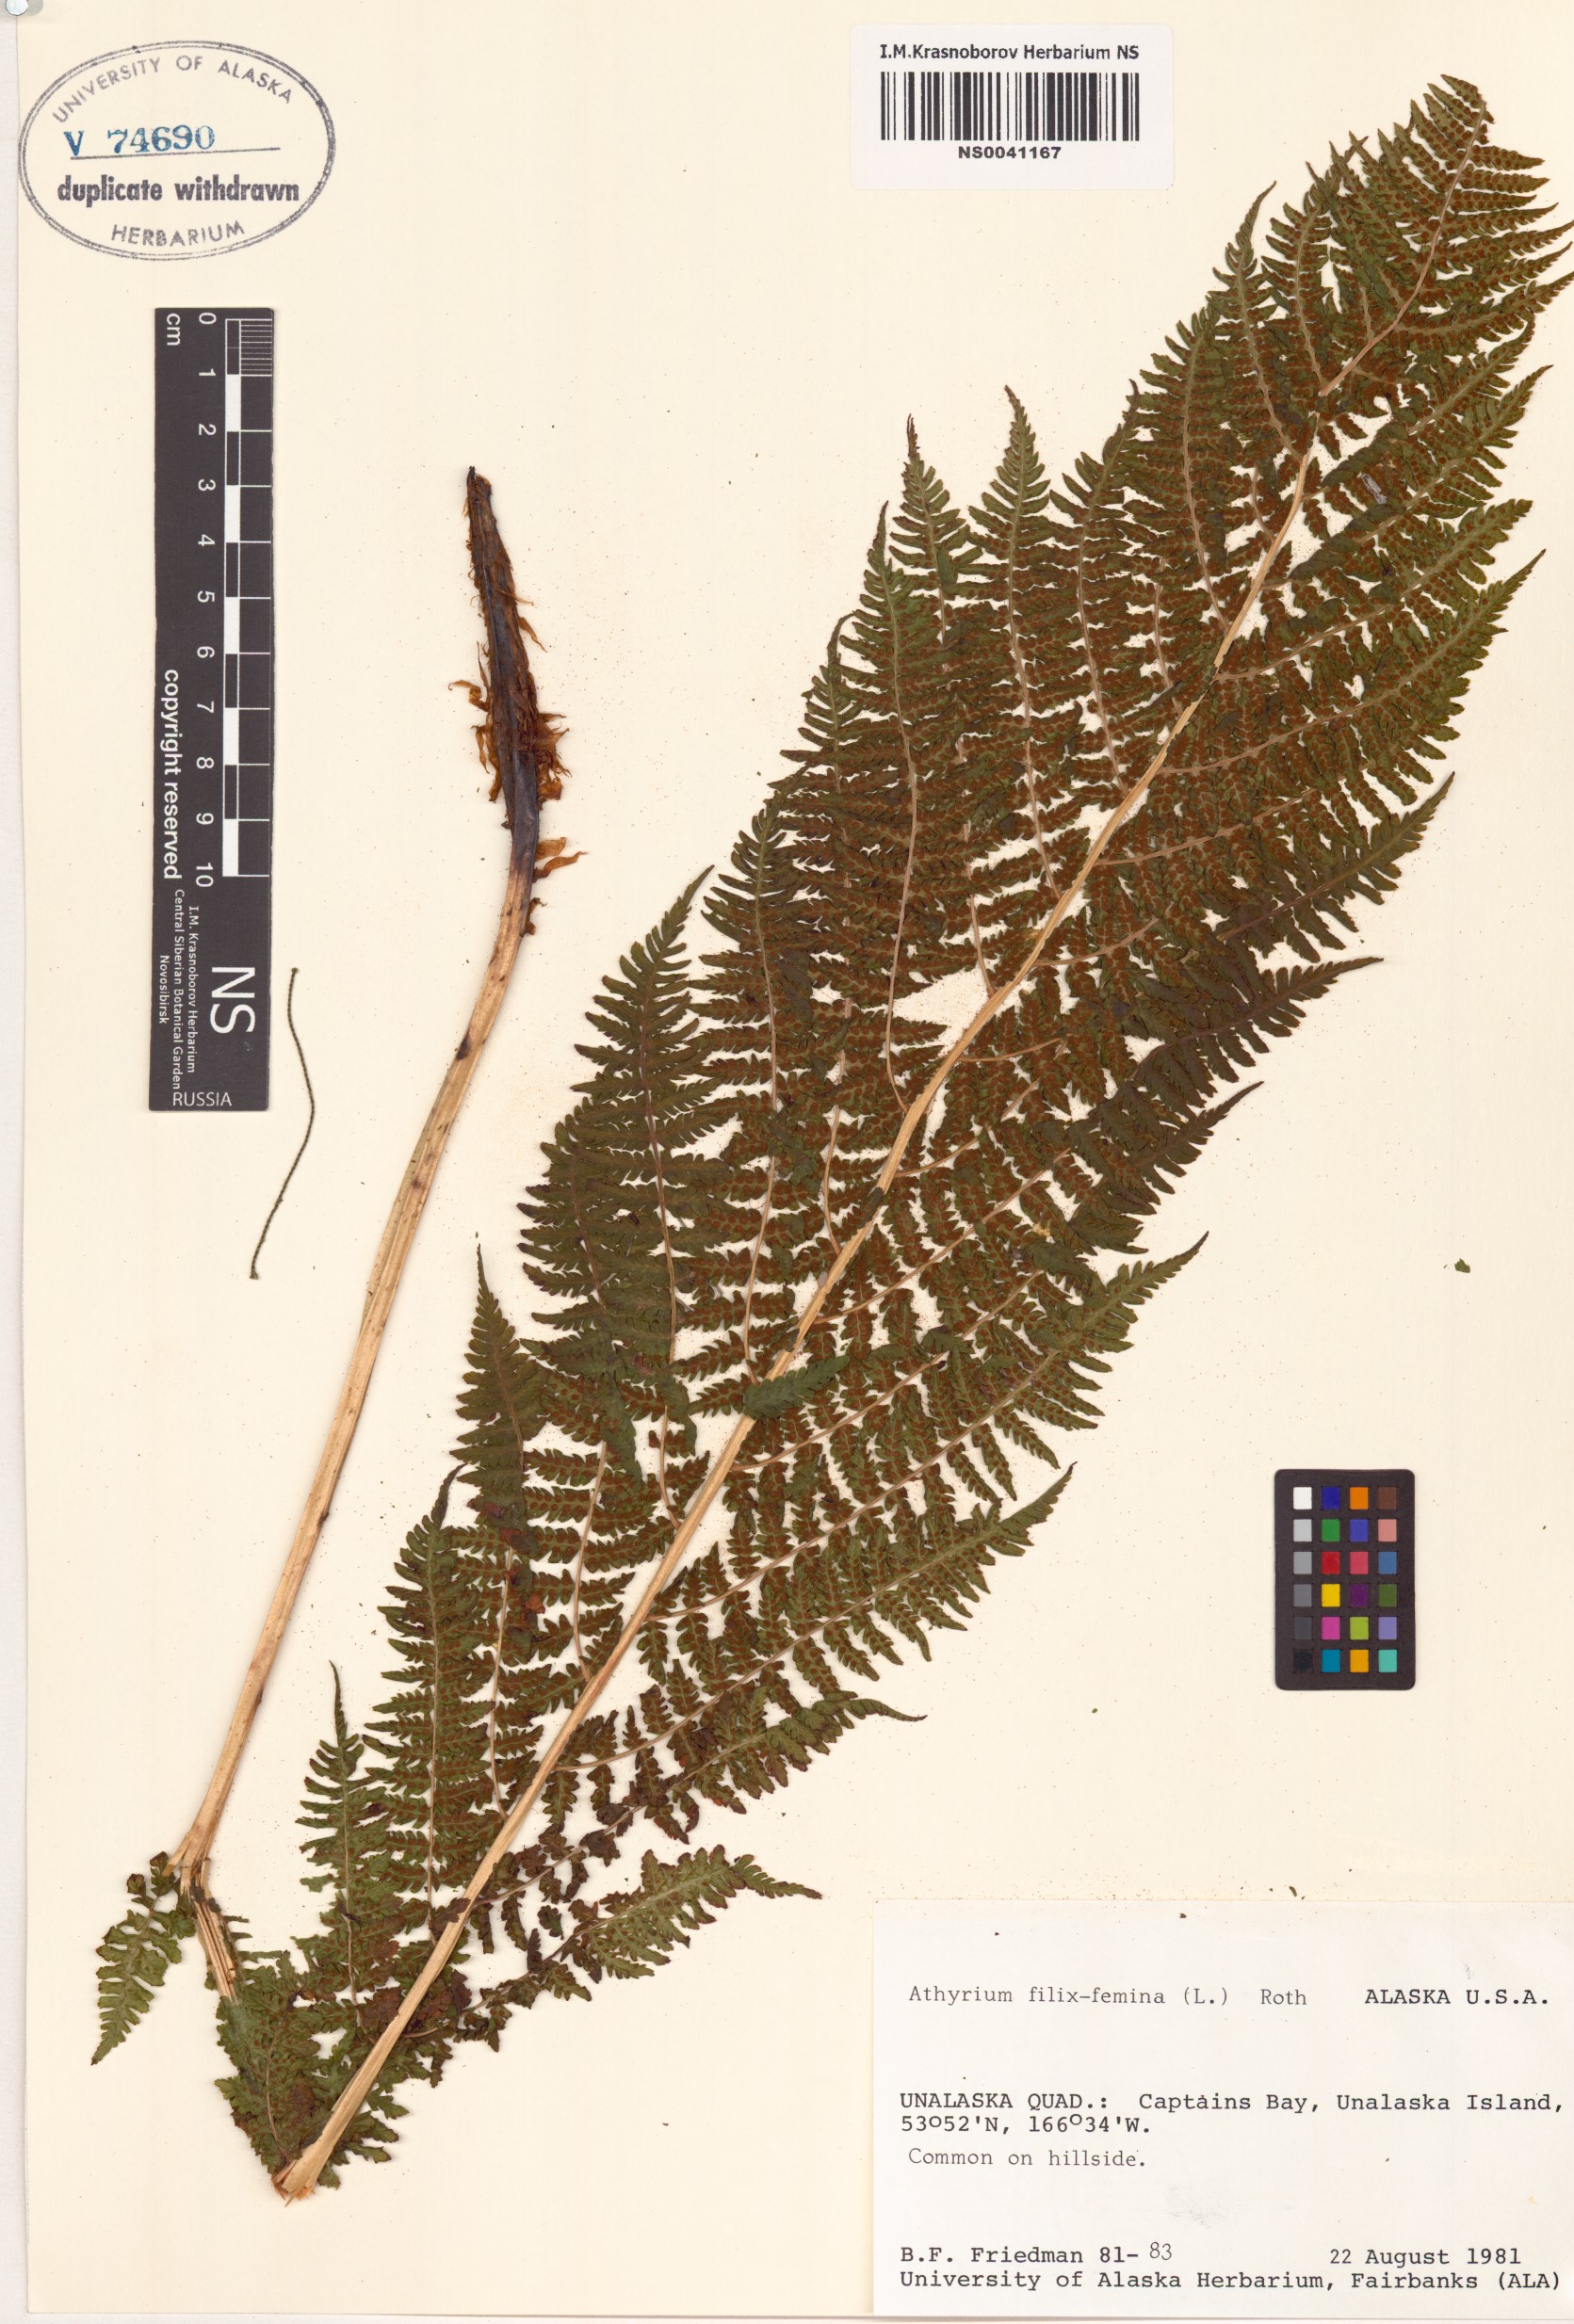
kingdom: Plantae
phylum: Tracheophyta
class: Polypodiopsida
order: Polypodiales
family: Athyriaceae
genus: Athyrium
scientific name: Athyrium filix-femina
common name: Lady fern
